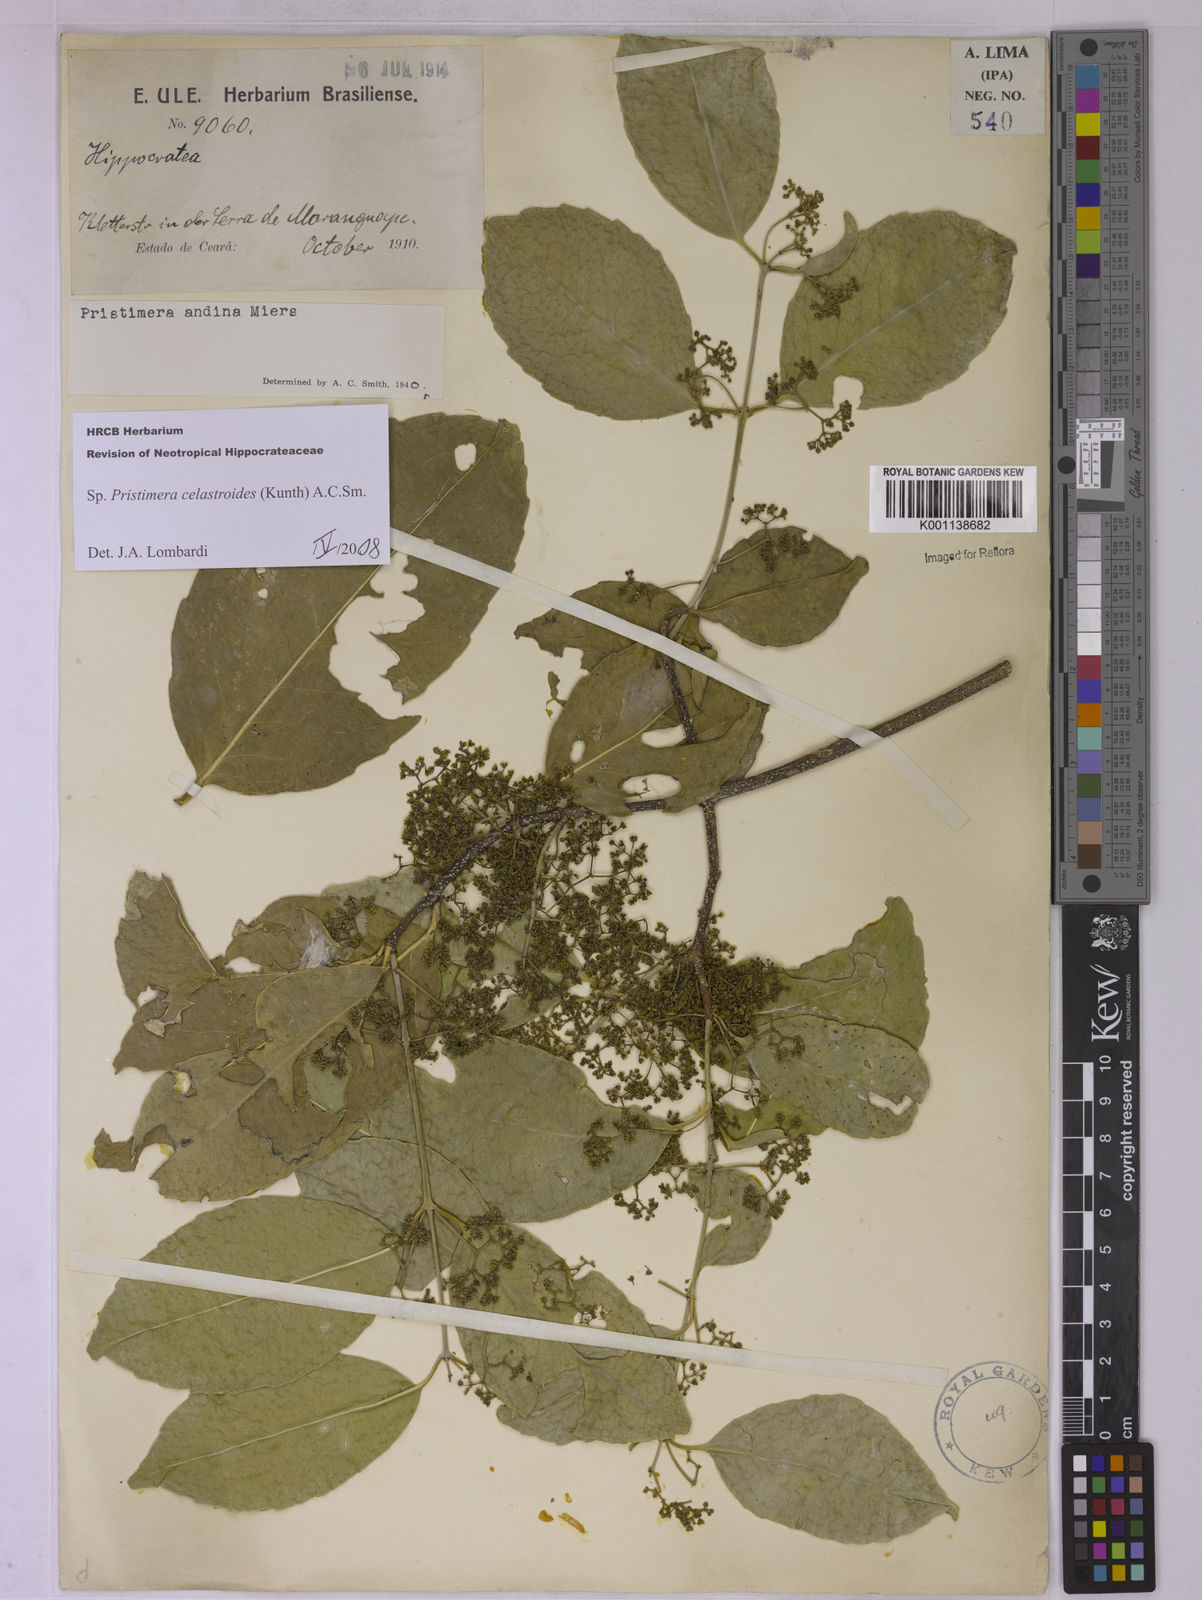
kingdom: Plantae
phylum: Tracheophyta
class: Magnoliopsida
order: Celastrales
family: Celastraceae
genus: Pristimera
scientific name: Pristimera celastroides
